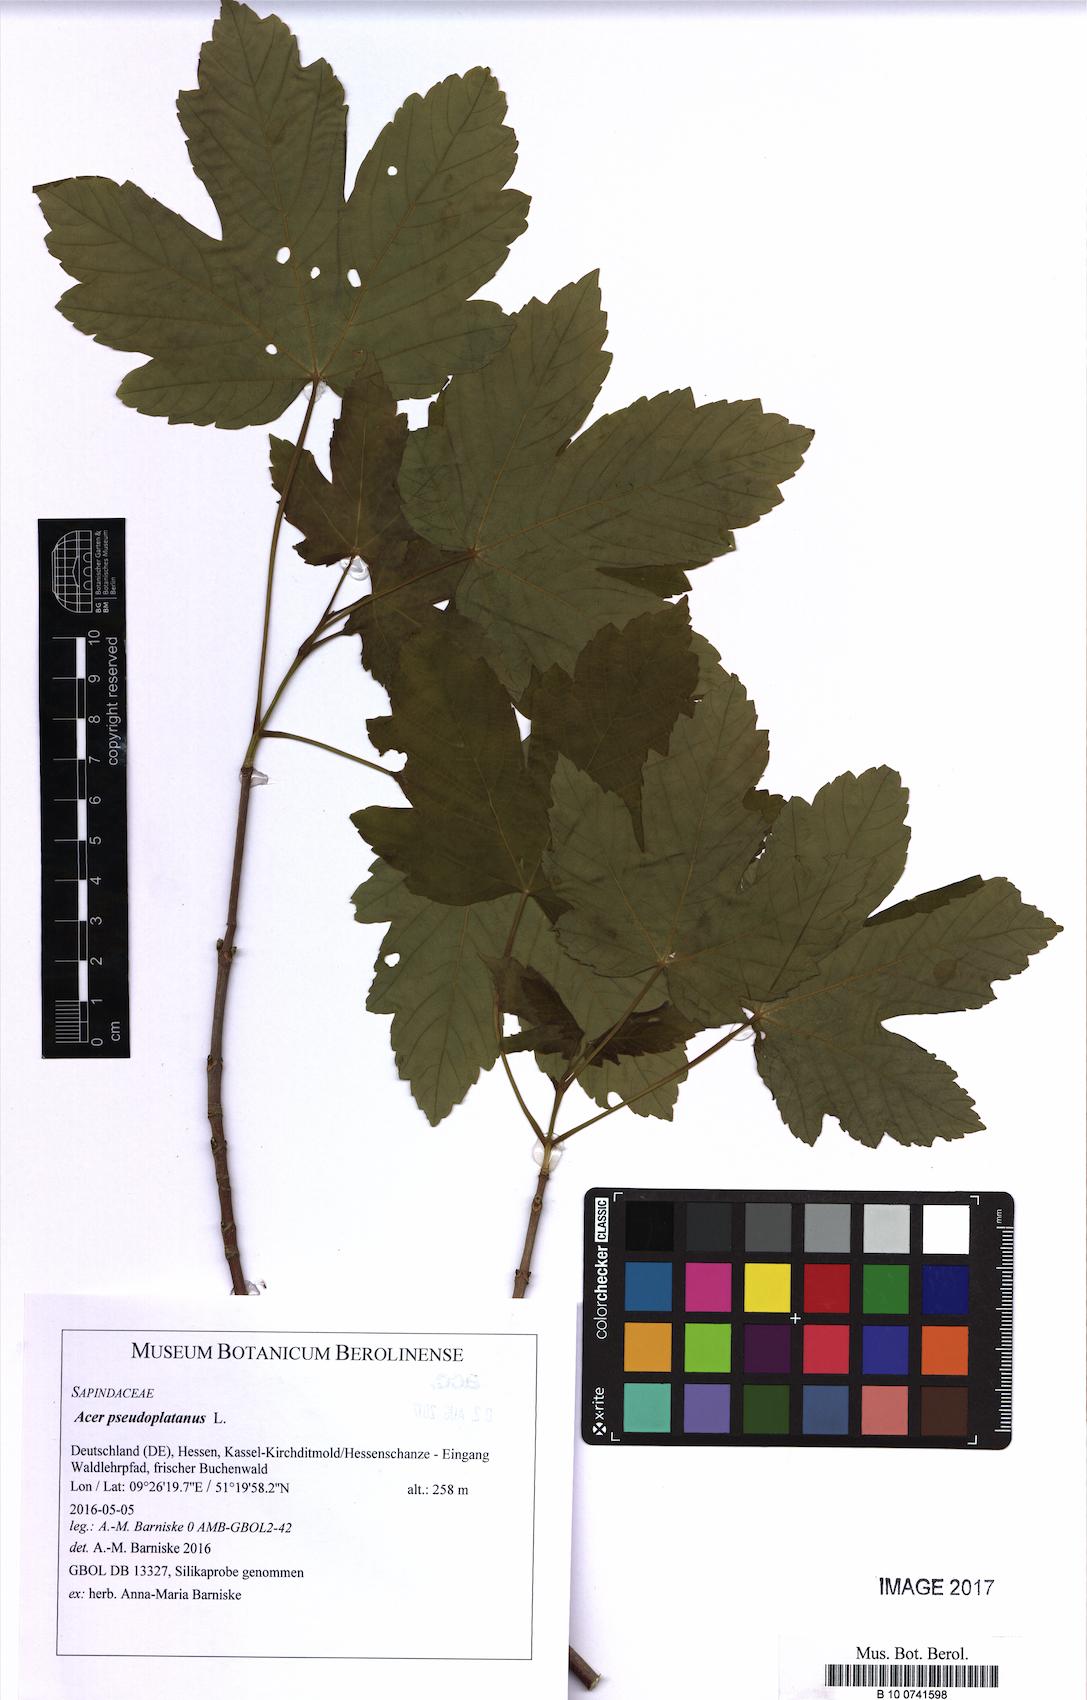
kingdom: Plantae
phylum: Tracheophyta
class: Magnoliopsida
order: Sapindales
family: Sapindaceae
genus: Acer
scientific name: Acer pseudoplatanus
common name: Sycamore
